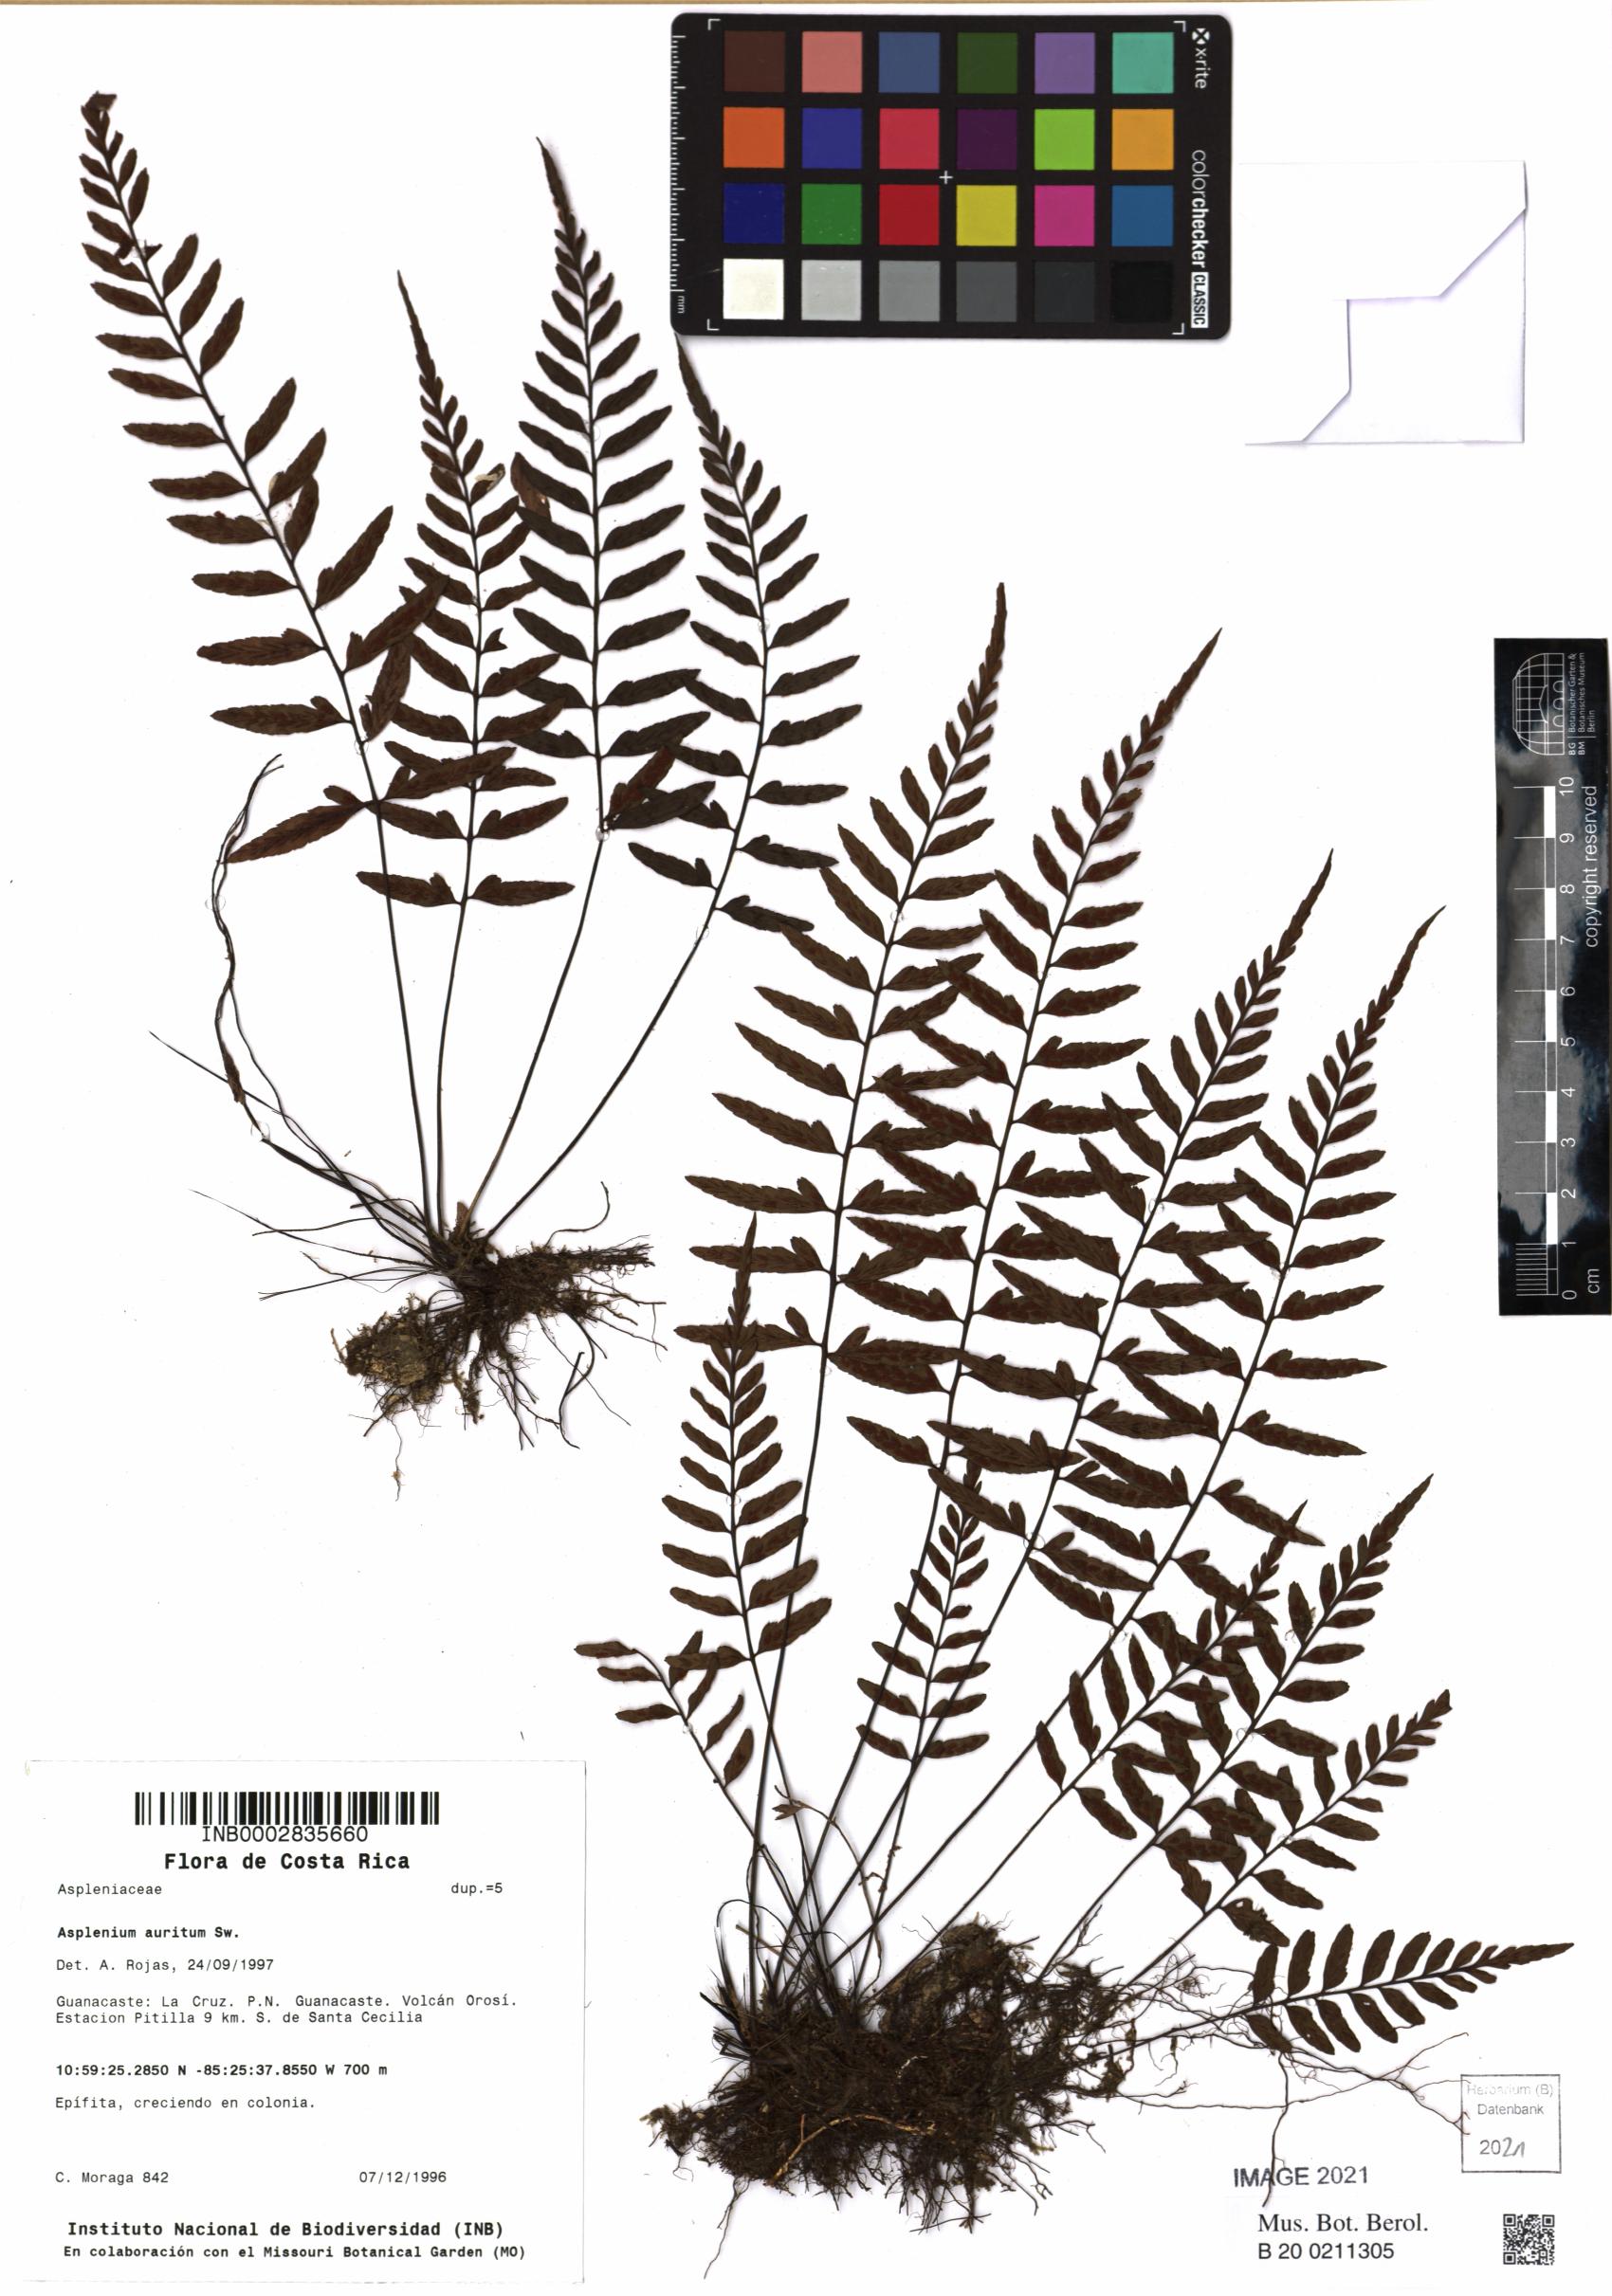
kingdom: Plantae
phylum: Tracheophyta
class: Polypodiopsida
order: Polypodiales
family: Aspleniaceae
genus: Asplenium
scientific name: Asplenium auritum
